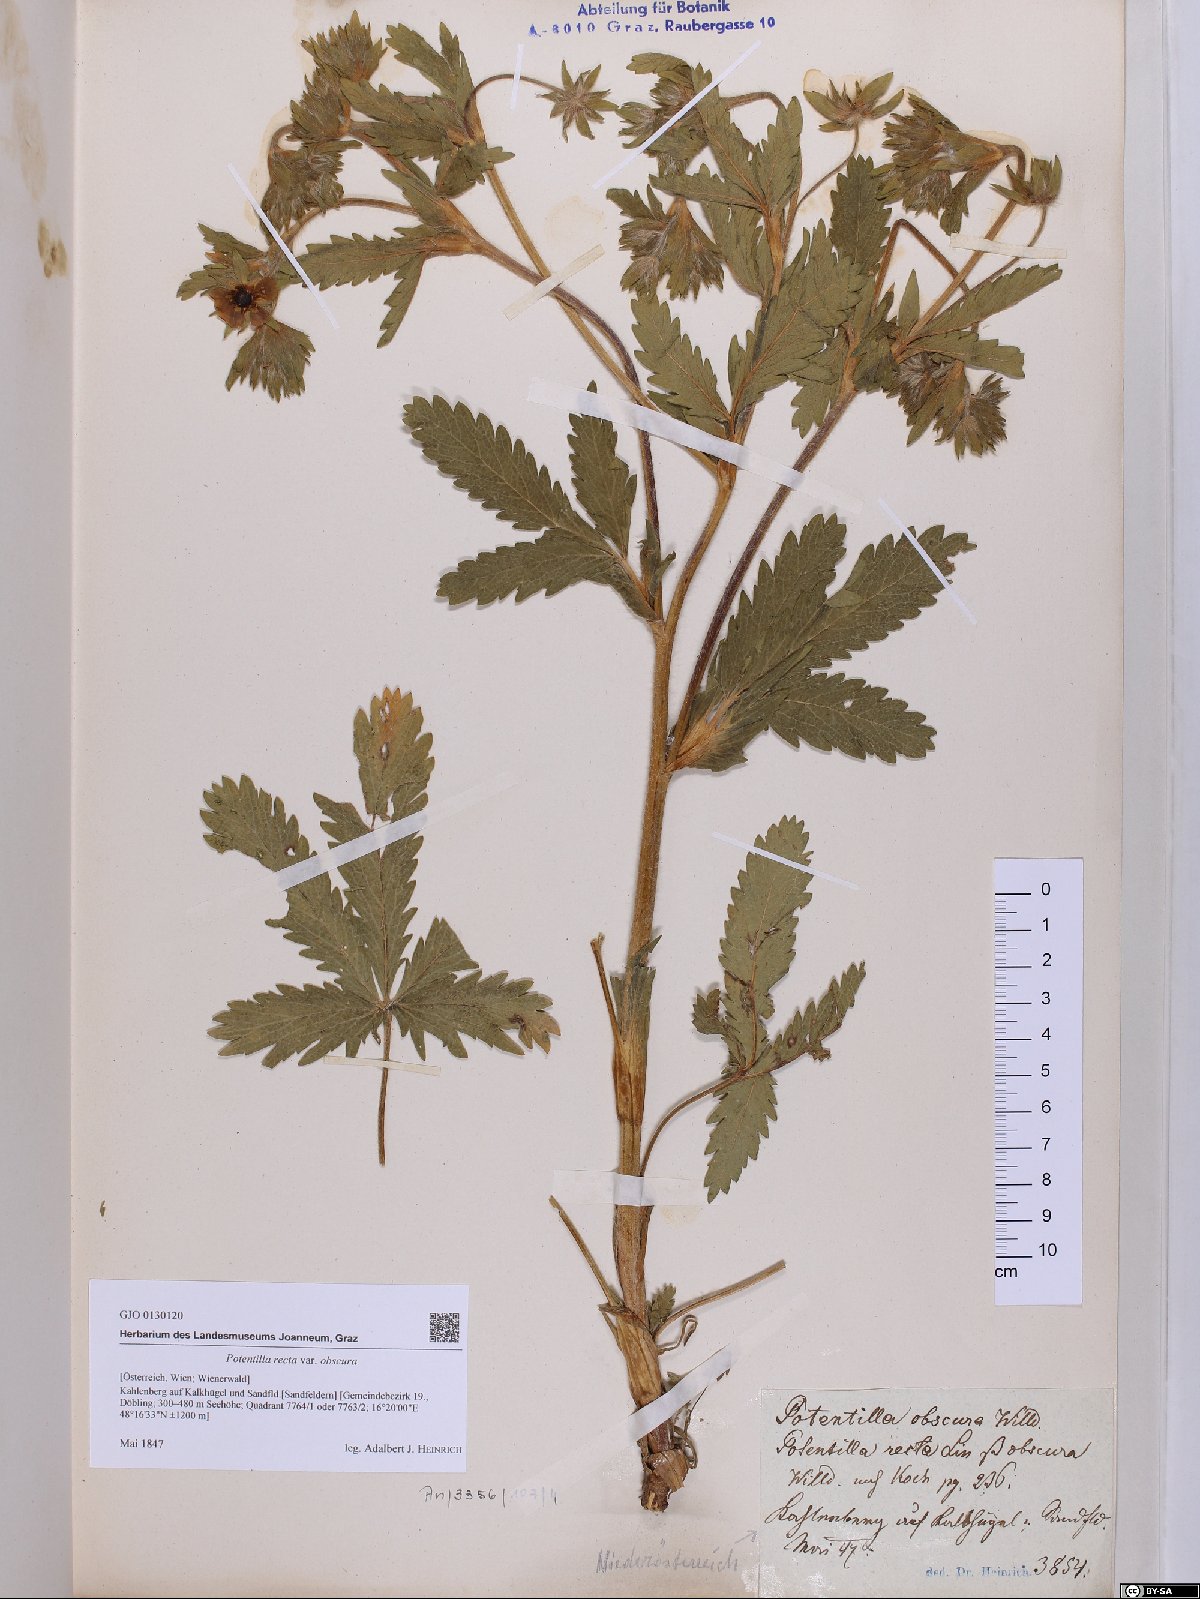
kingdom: Plantae
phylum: Tracheophyta
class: Magnoliopsida
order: Rosales
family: Rosaceae
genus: Potentilla
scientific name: Potentilla recta
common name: Sulphur cinquefoil
